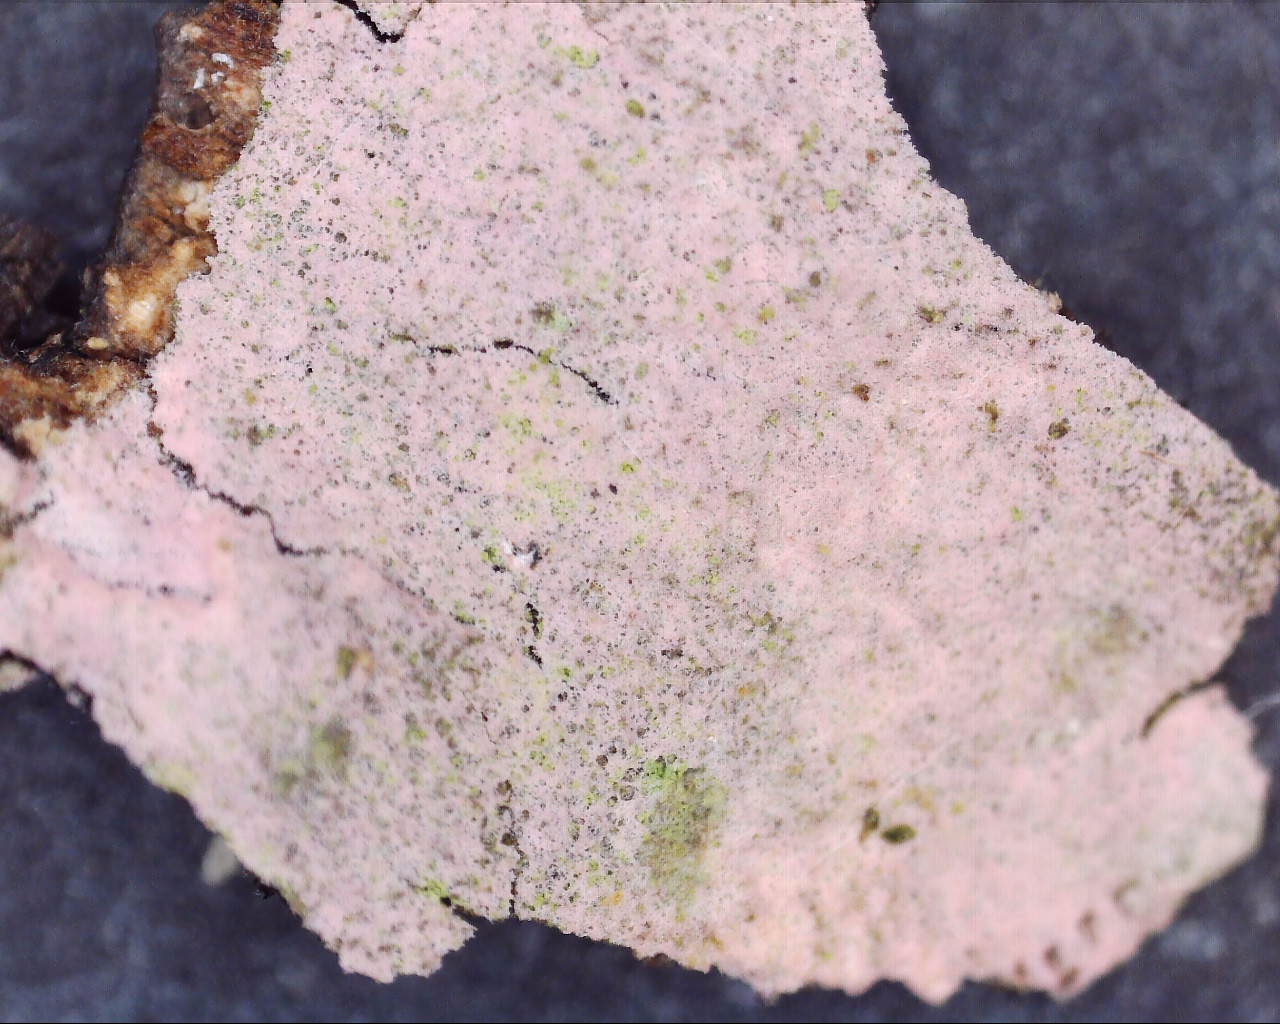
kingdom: Fungi
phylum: Basidiomycota
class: Agaricomycetes
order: Cantharellales
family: Tulasnellaceae
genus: Tulasnella
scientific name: Tulasnella violea
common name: violet ballonhinde
